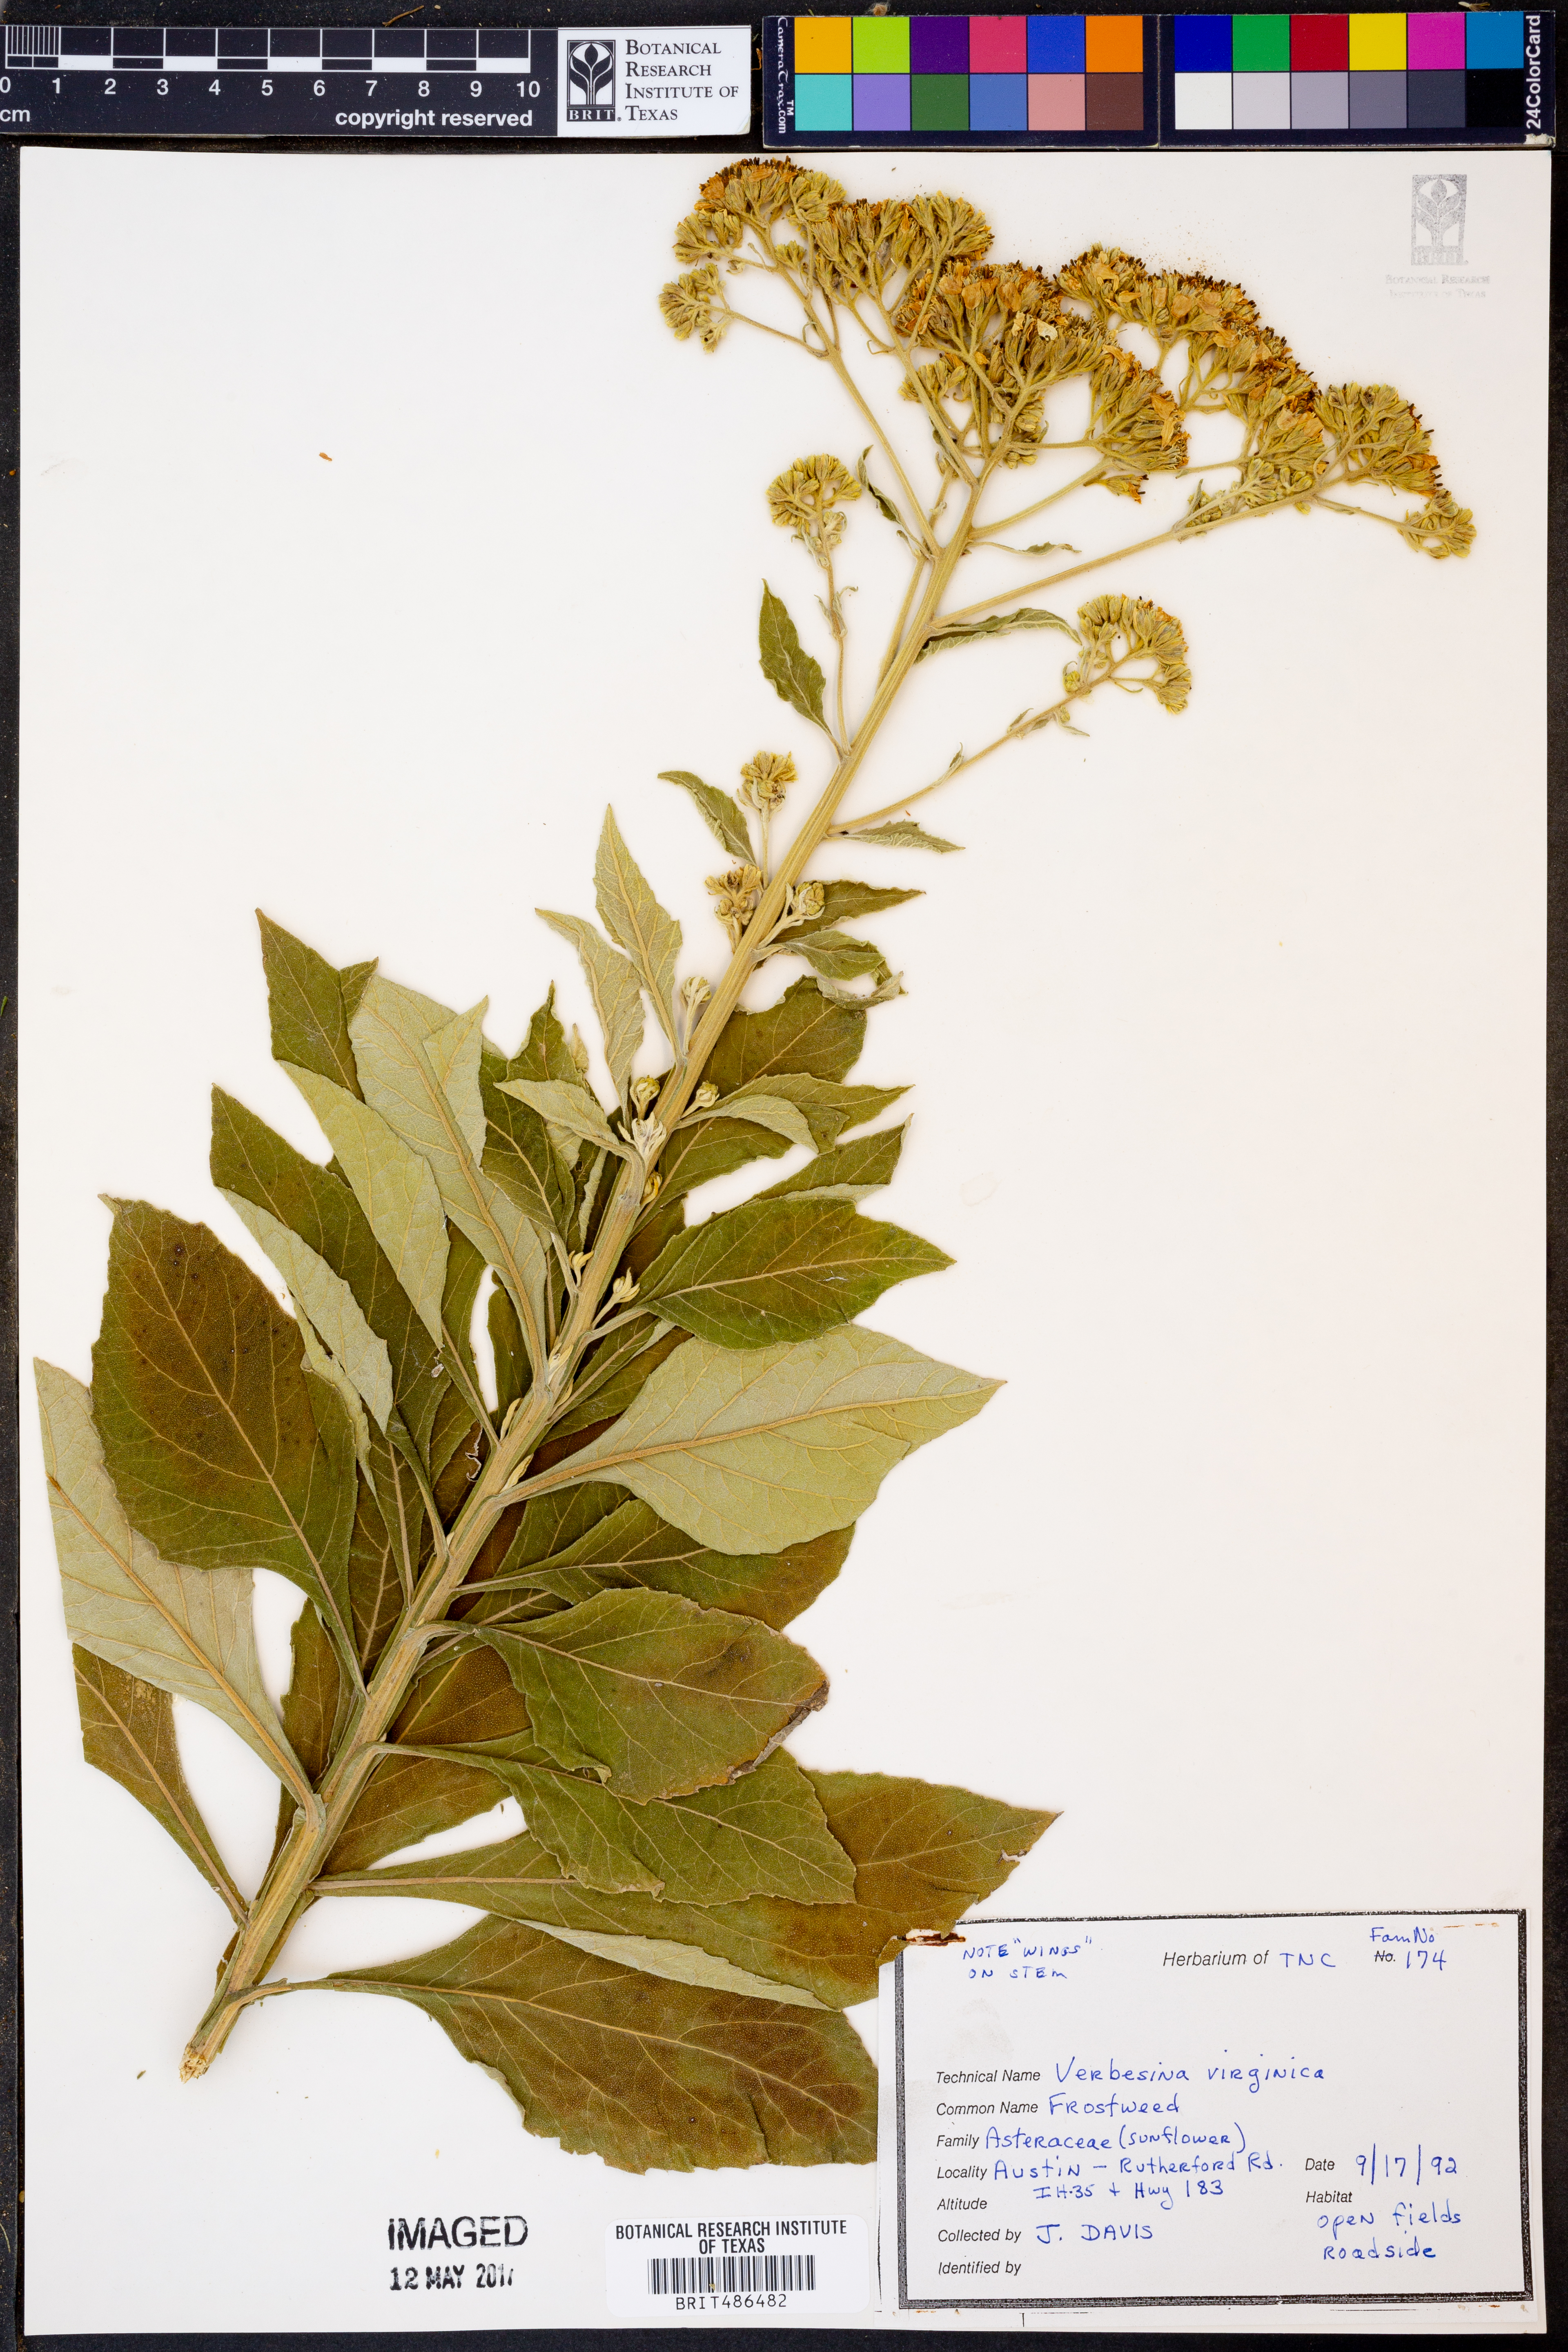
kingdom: Plantae
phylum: Tracheophyta
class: Magnoliopsida
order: Asterales
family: Asteraceae
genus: Verbesina
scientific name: Verbesina virginica
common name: Frostweed
